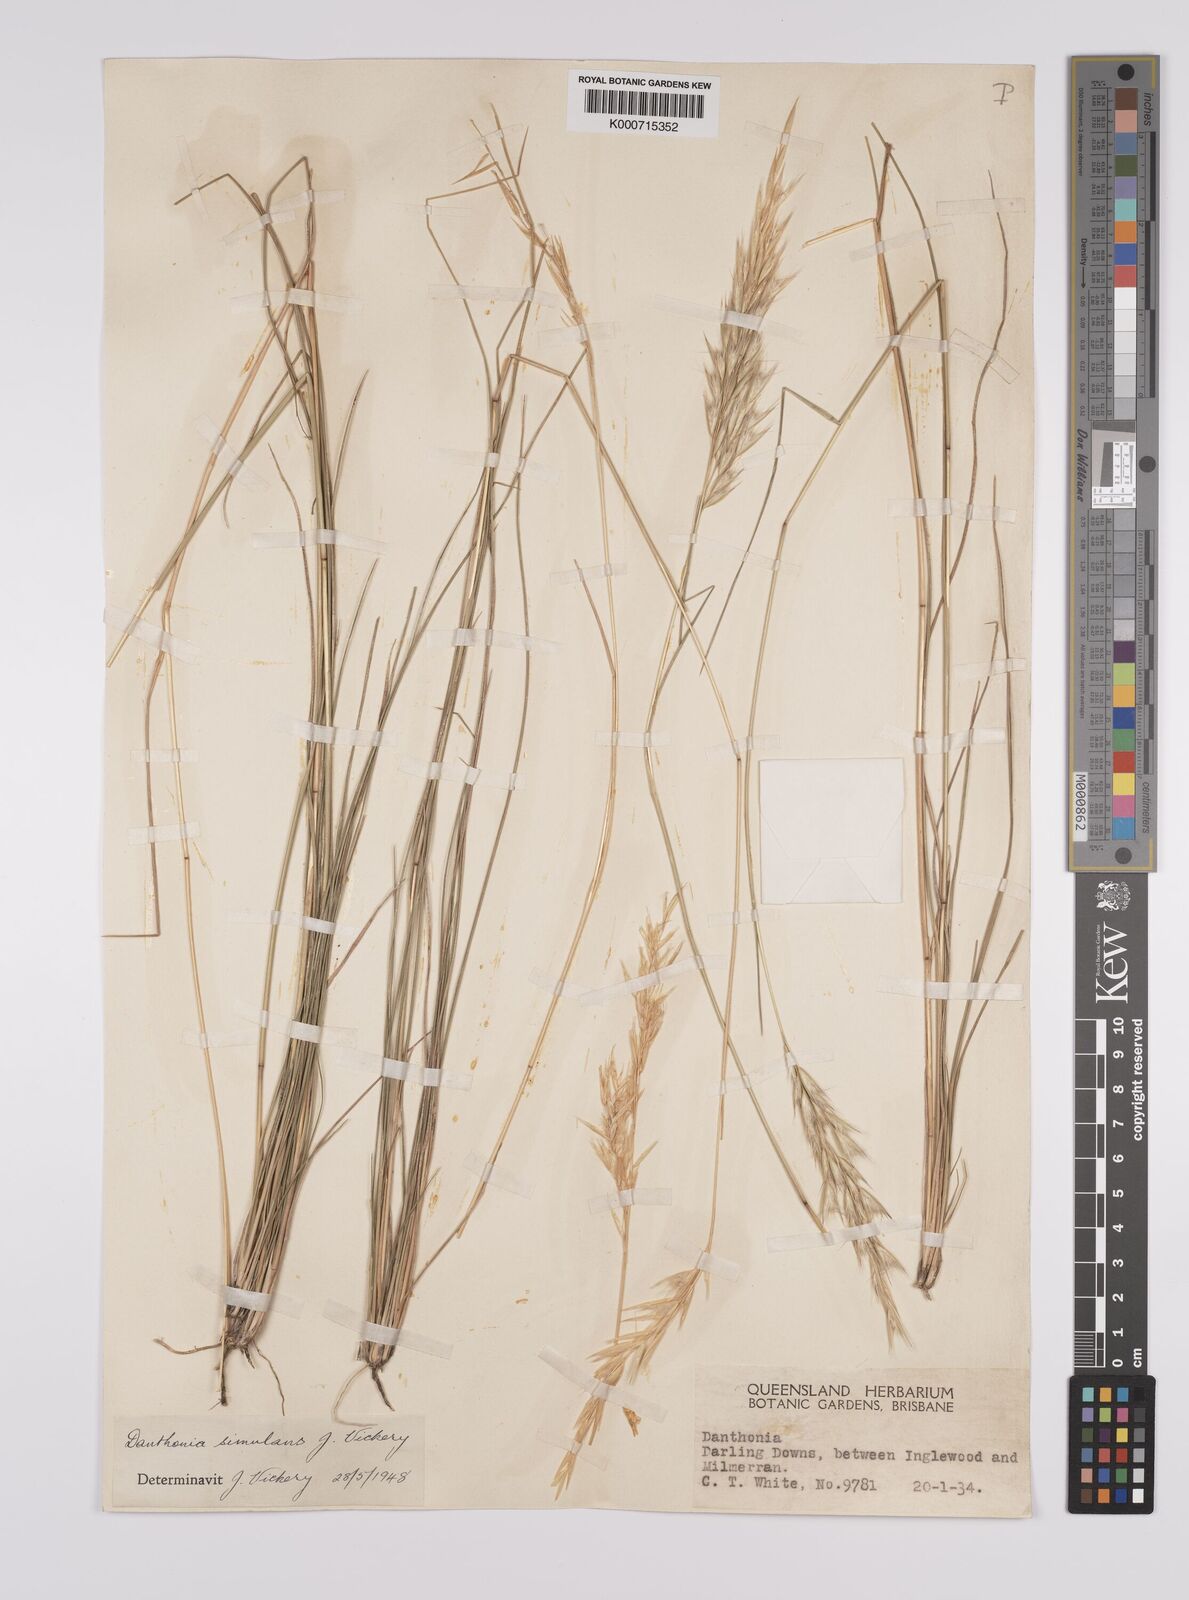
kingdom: Plantae
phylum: Tracheophyta
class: Liliopsida
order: Poales
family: Poaceae
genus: Rytidosperma
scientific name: Rytidosperma bipartitum
